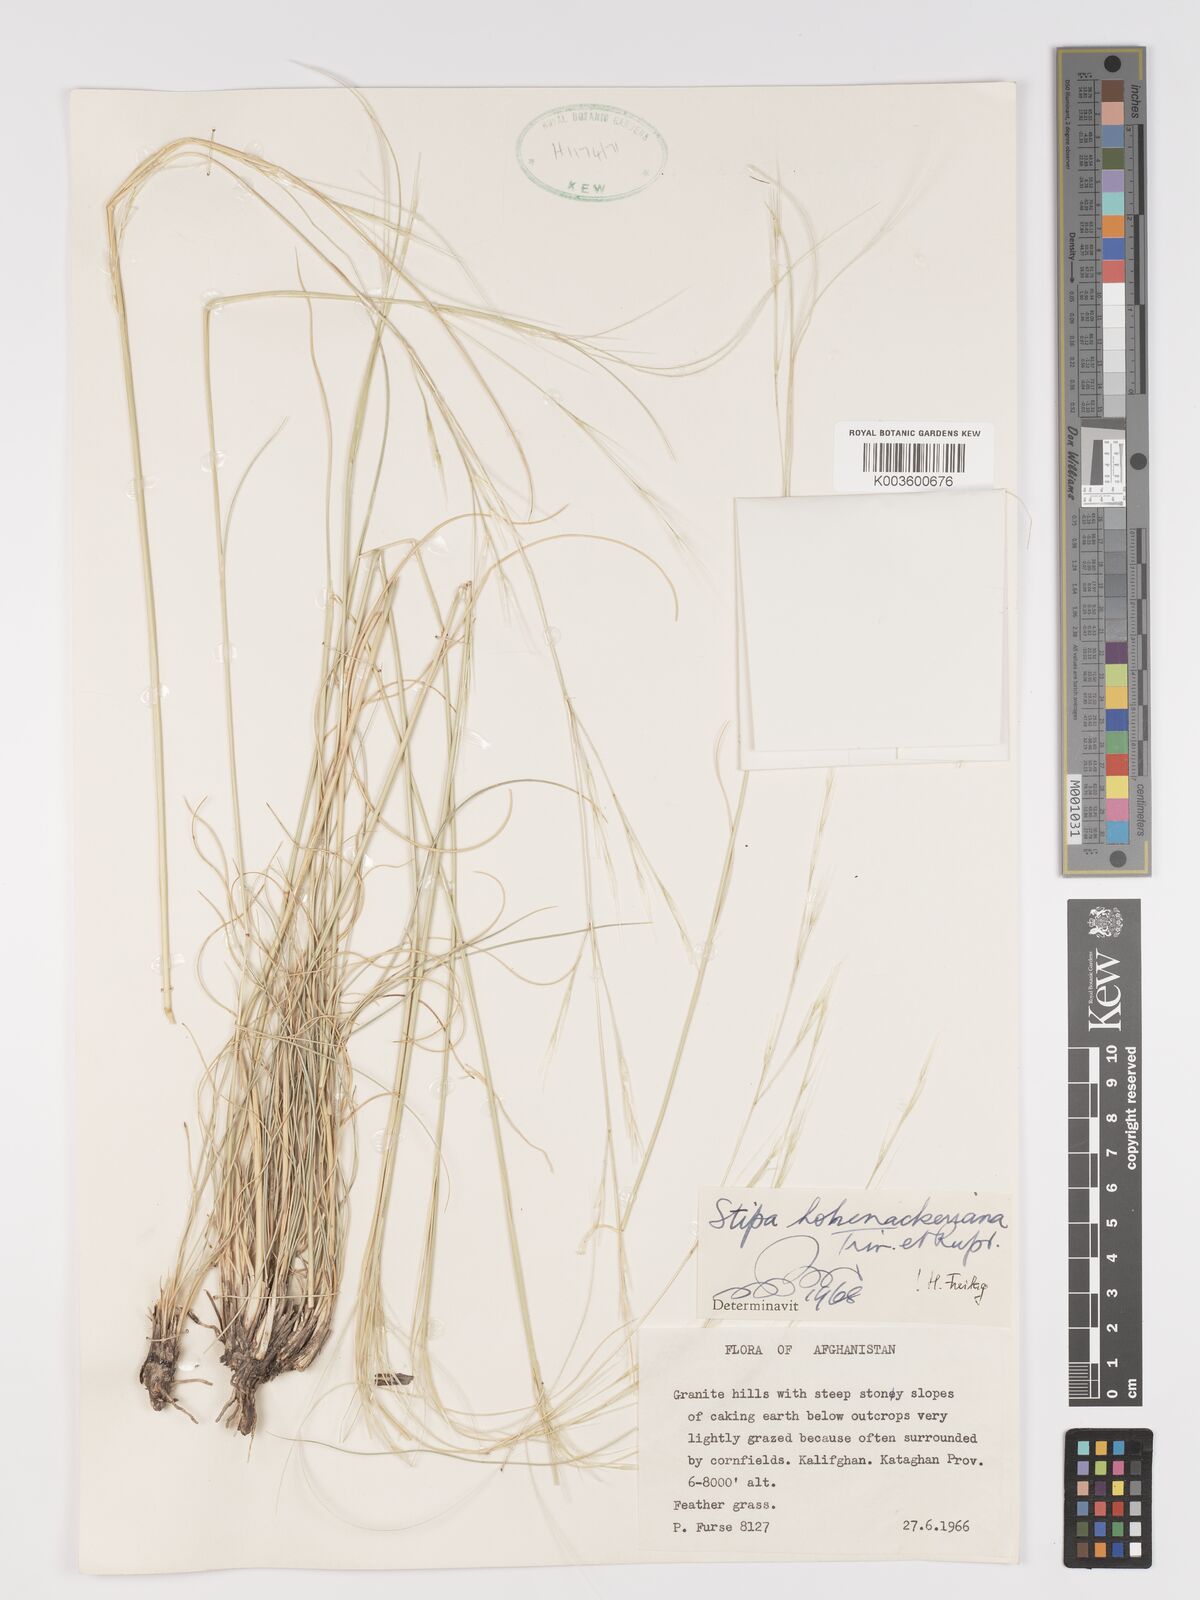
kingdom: Plantae
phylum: Tracheophyta
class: Liliopsida
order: Poales
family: Poaceae
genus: Stipa
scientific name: Stipa hohenackeriana
